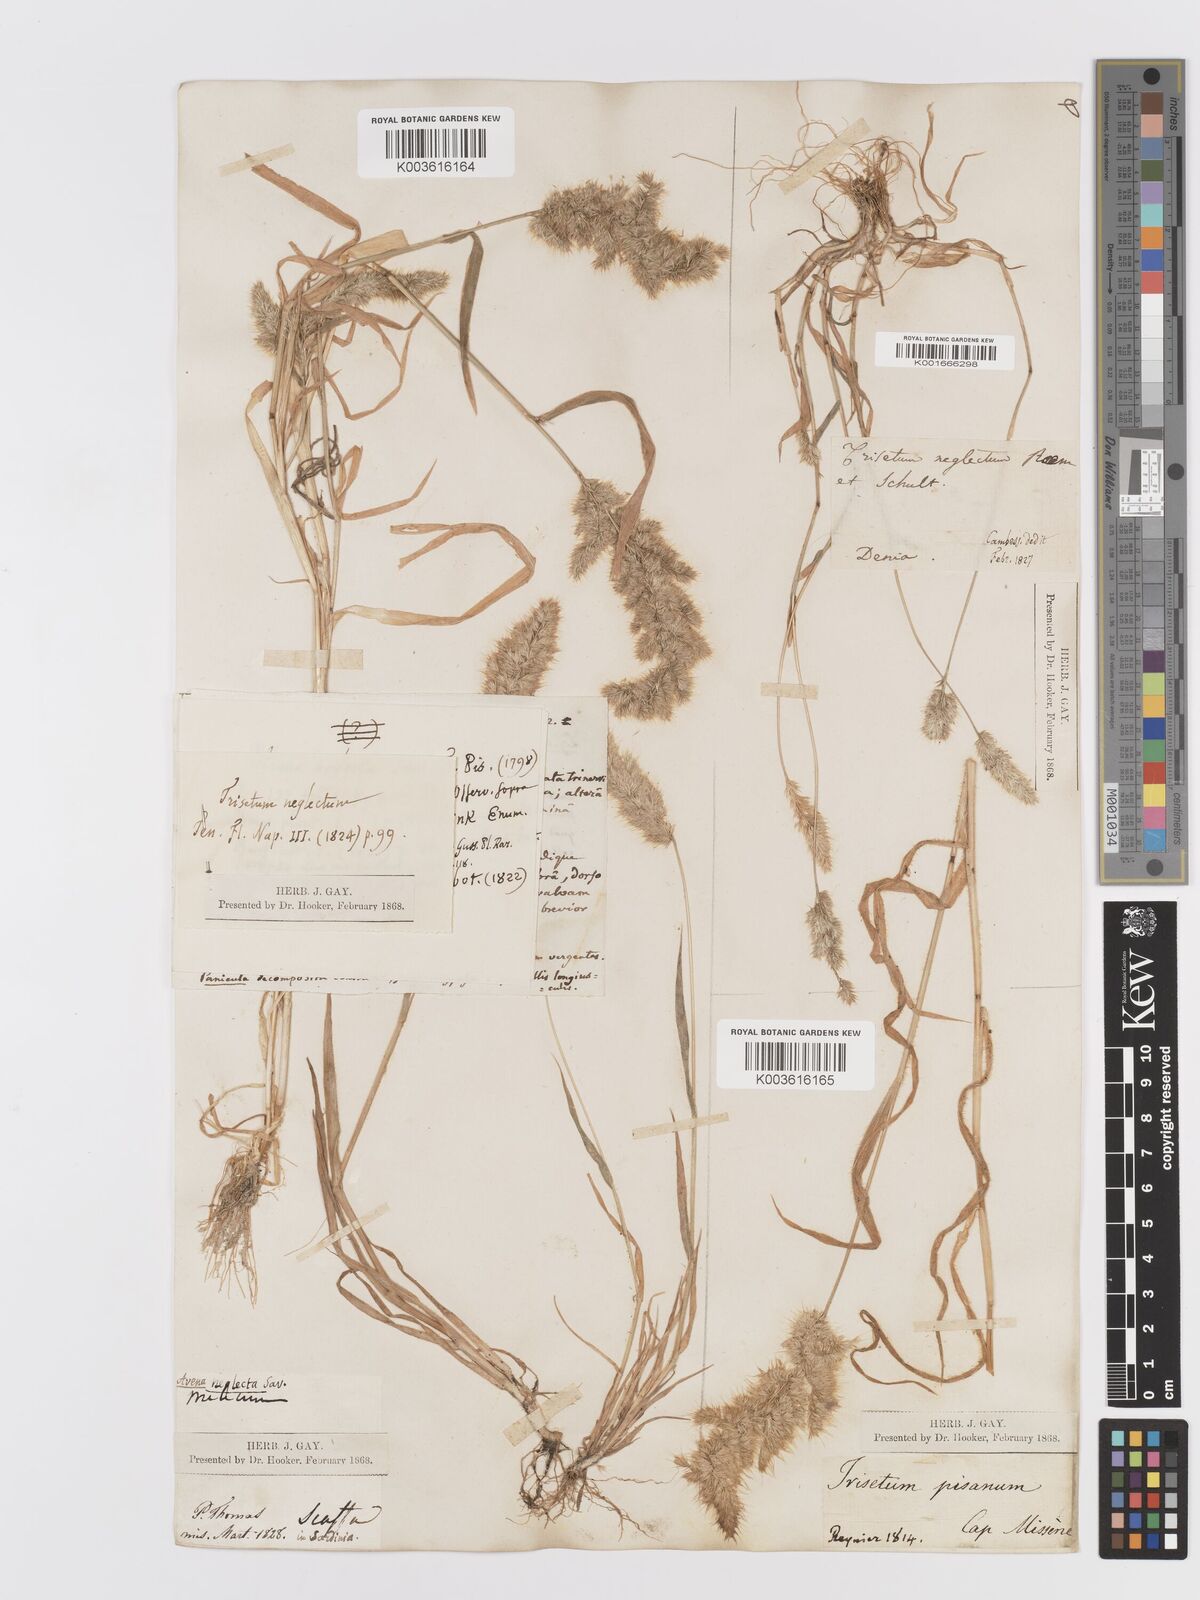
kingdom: Plantae
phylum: Tracheophyta
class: Liliopsida
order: Poales
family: Poaceae
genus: Trisetaria
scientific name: Trisetaria panicea
